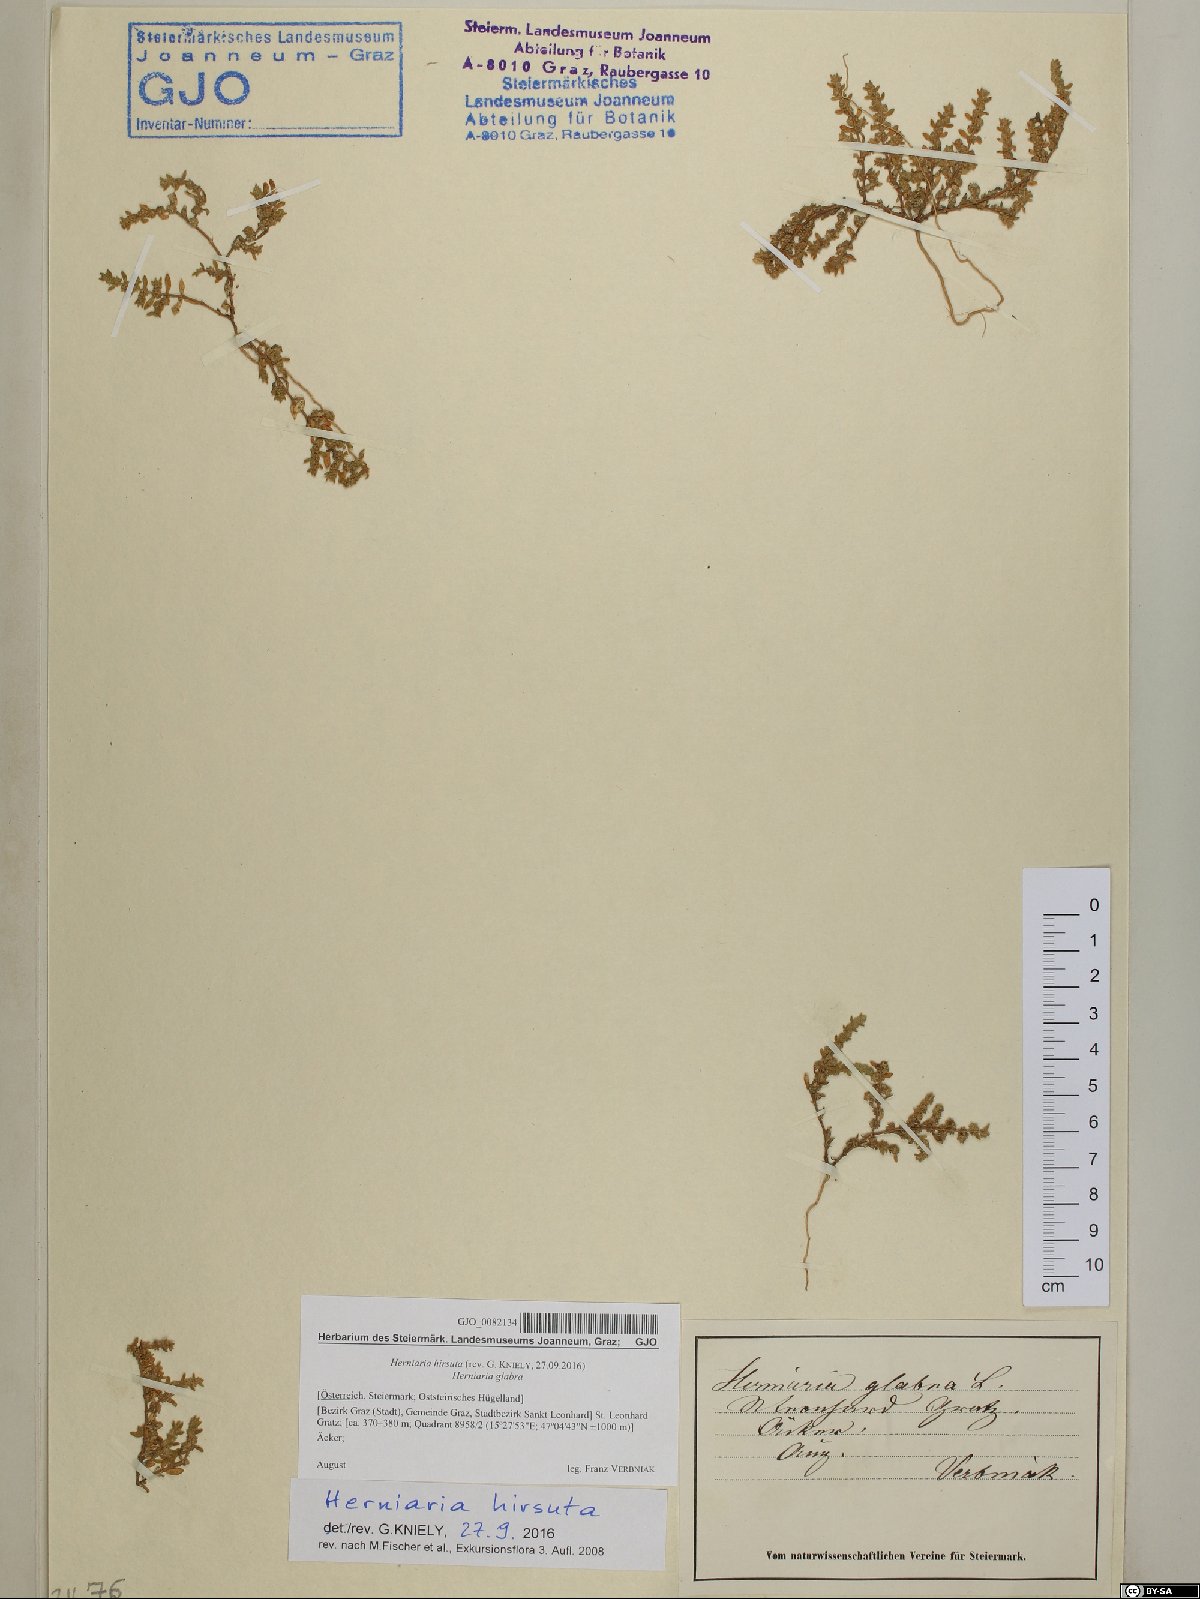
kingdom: Plantae
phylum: Tracheophyta
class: Magnoliopsida
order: Caryophyllales
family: Caryophyllaceae
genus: Herniaria
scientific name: Herniaria hirsuta
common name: Hairy rupturewort
